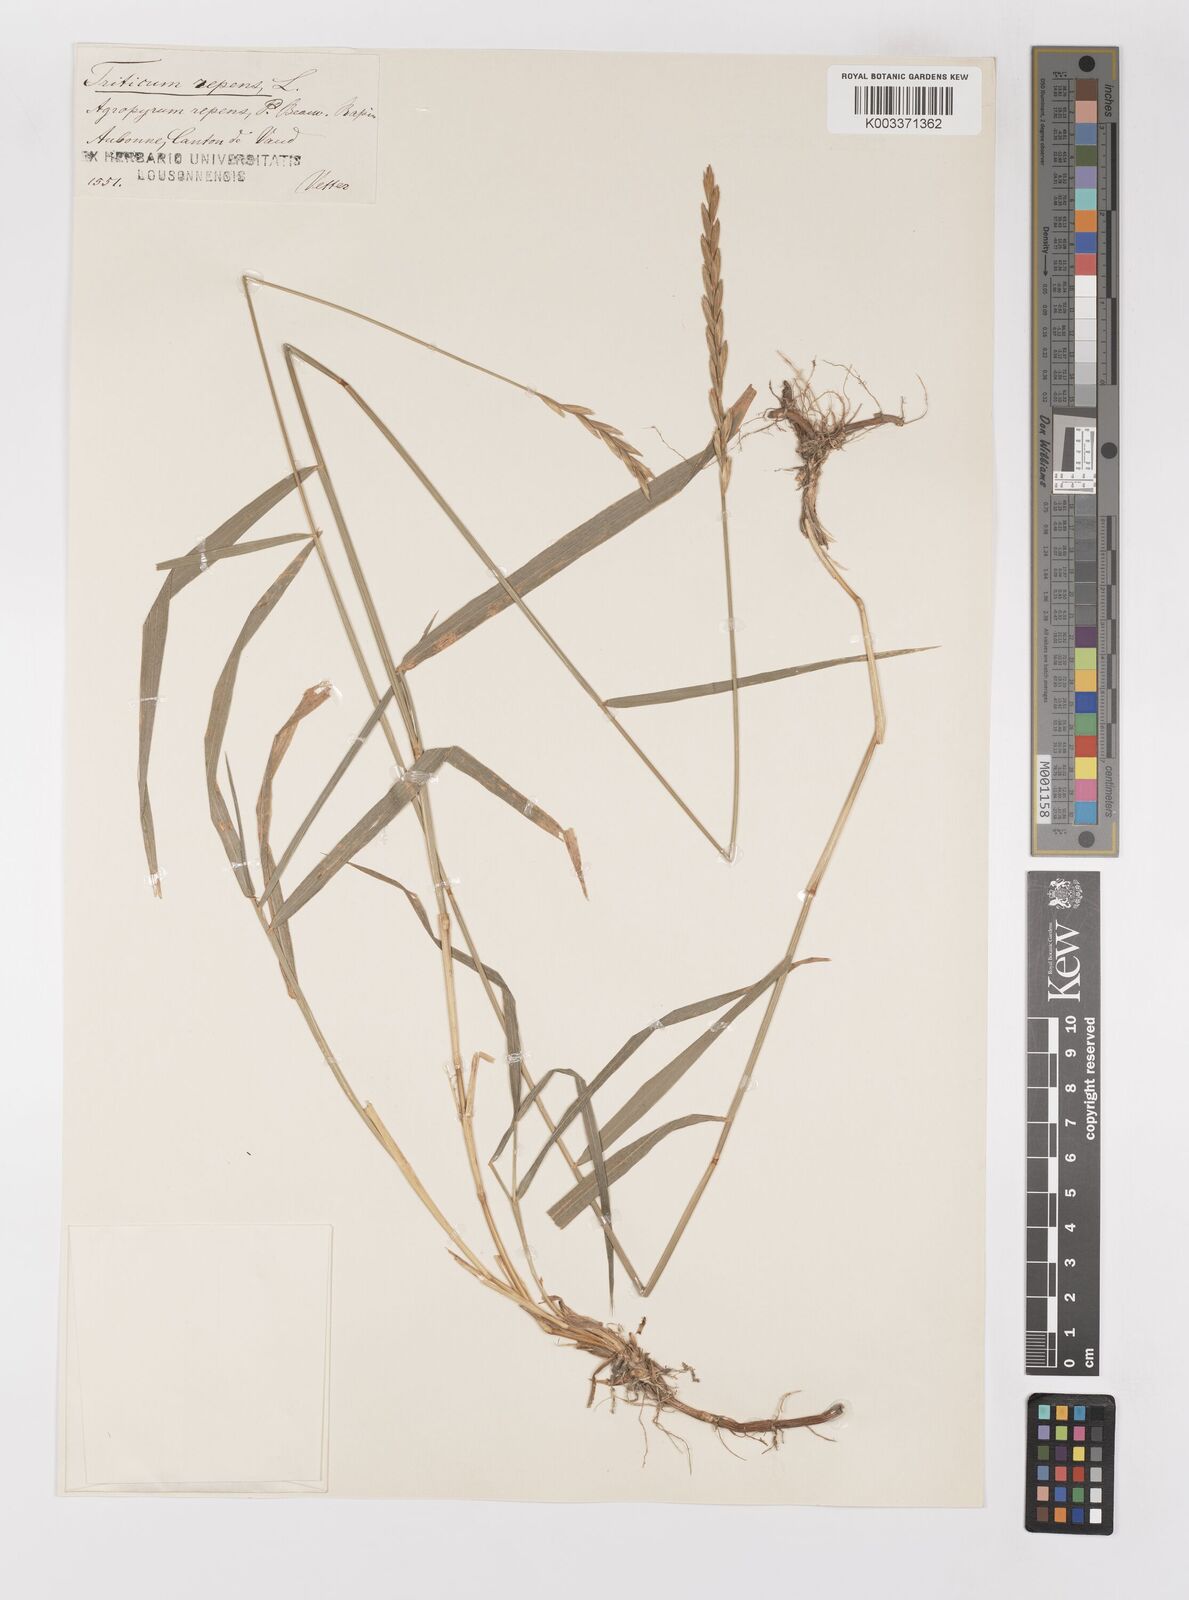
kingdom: Plantae
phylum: Tracheophyta
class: Liliopsida
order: Poales
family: Poaceae
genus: Elymus
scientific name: Elymus repens
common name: Quackgrass
